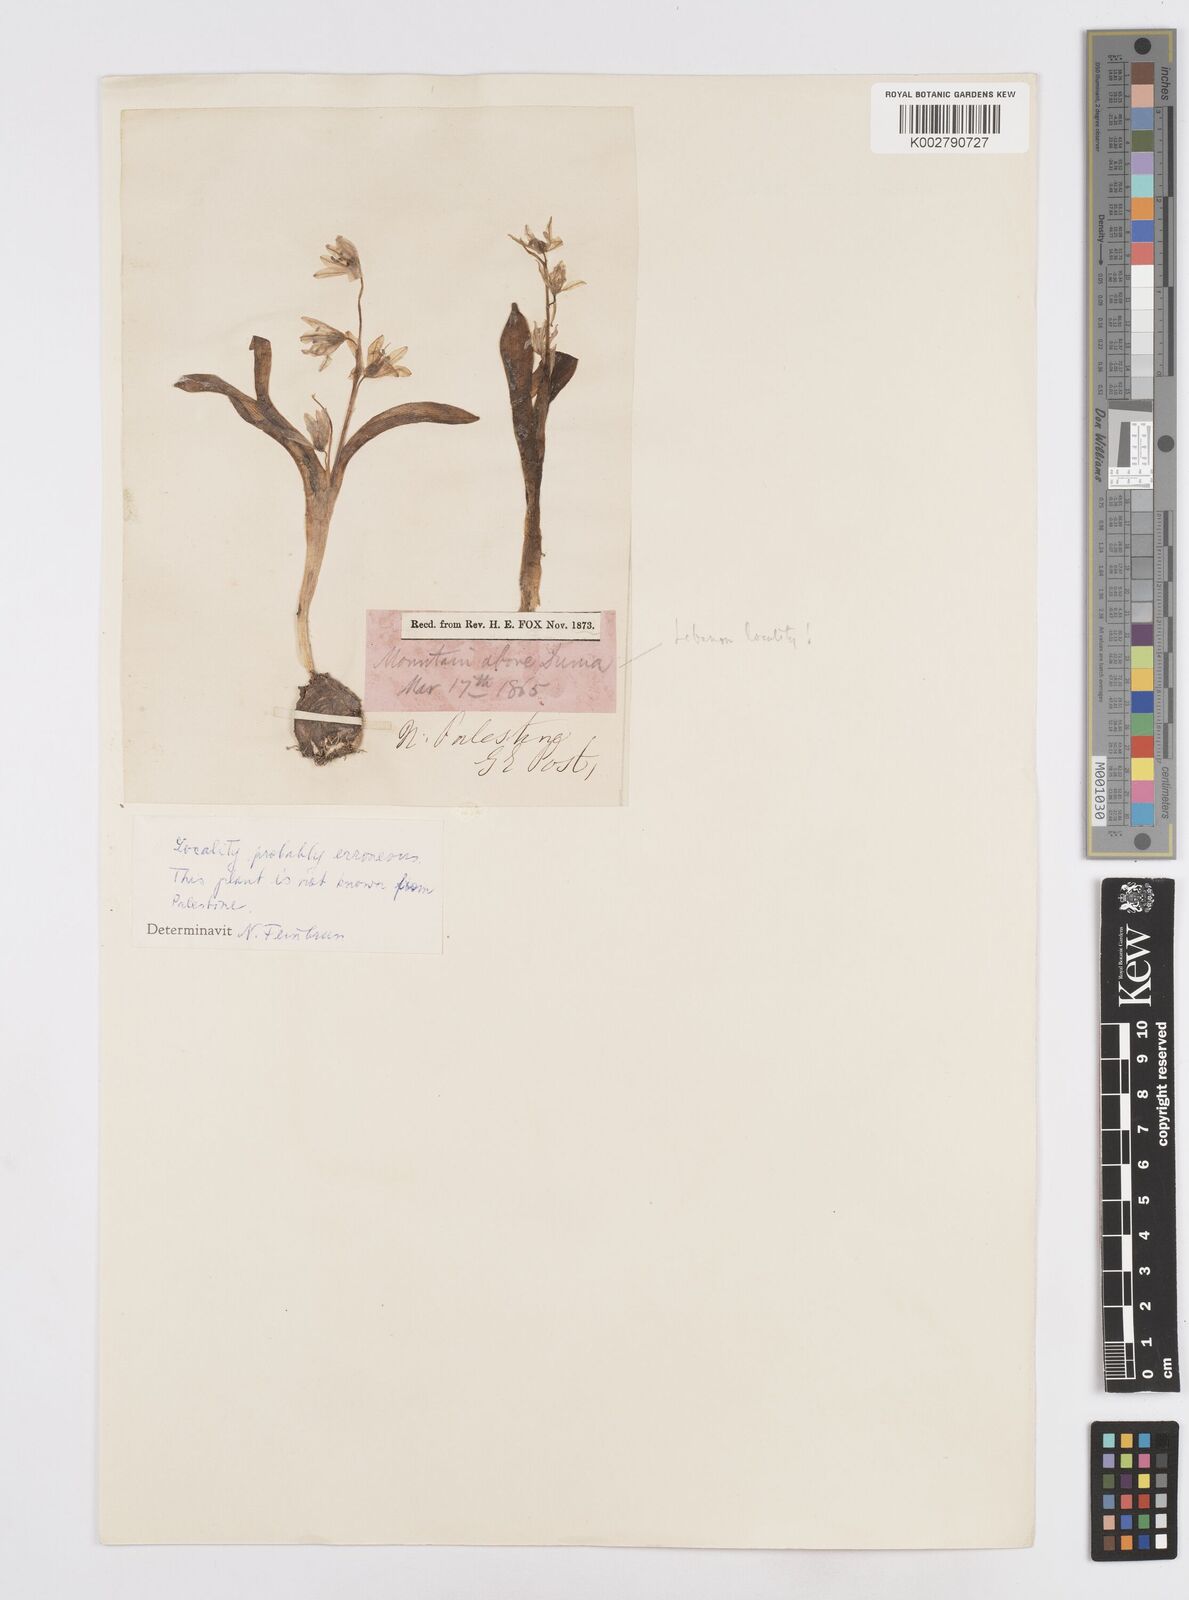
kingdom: Plantae
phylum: Tracheophyta
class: Liliopsida
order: Asparagales
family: Asparagaceae
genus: Scilla
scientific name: Scilla siberica
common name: Siberian squill
